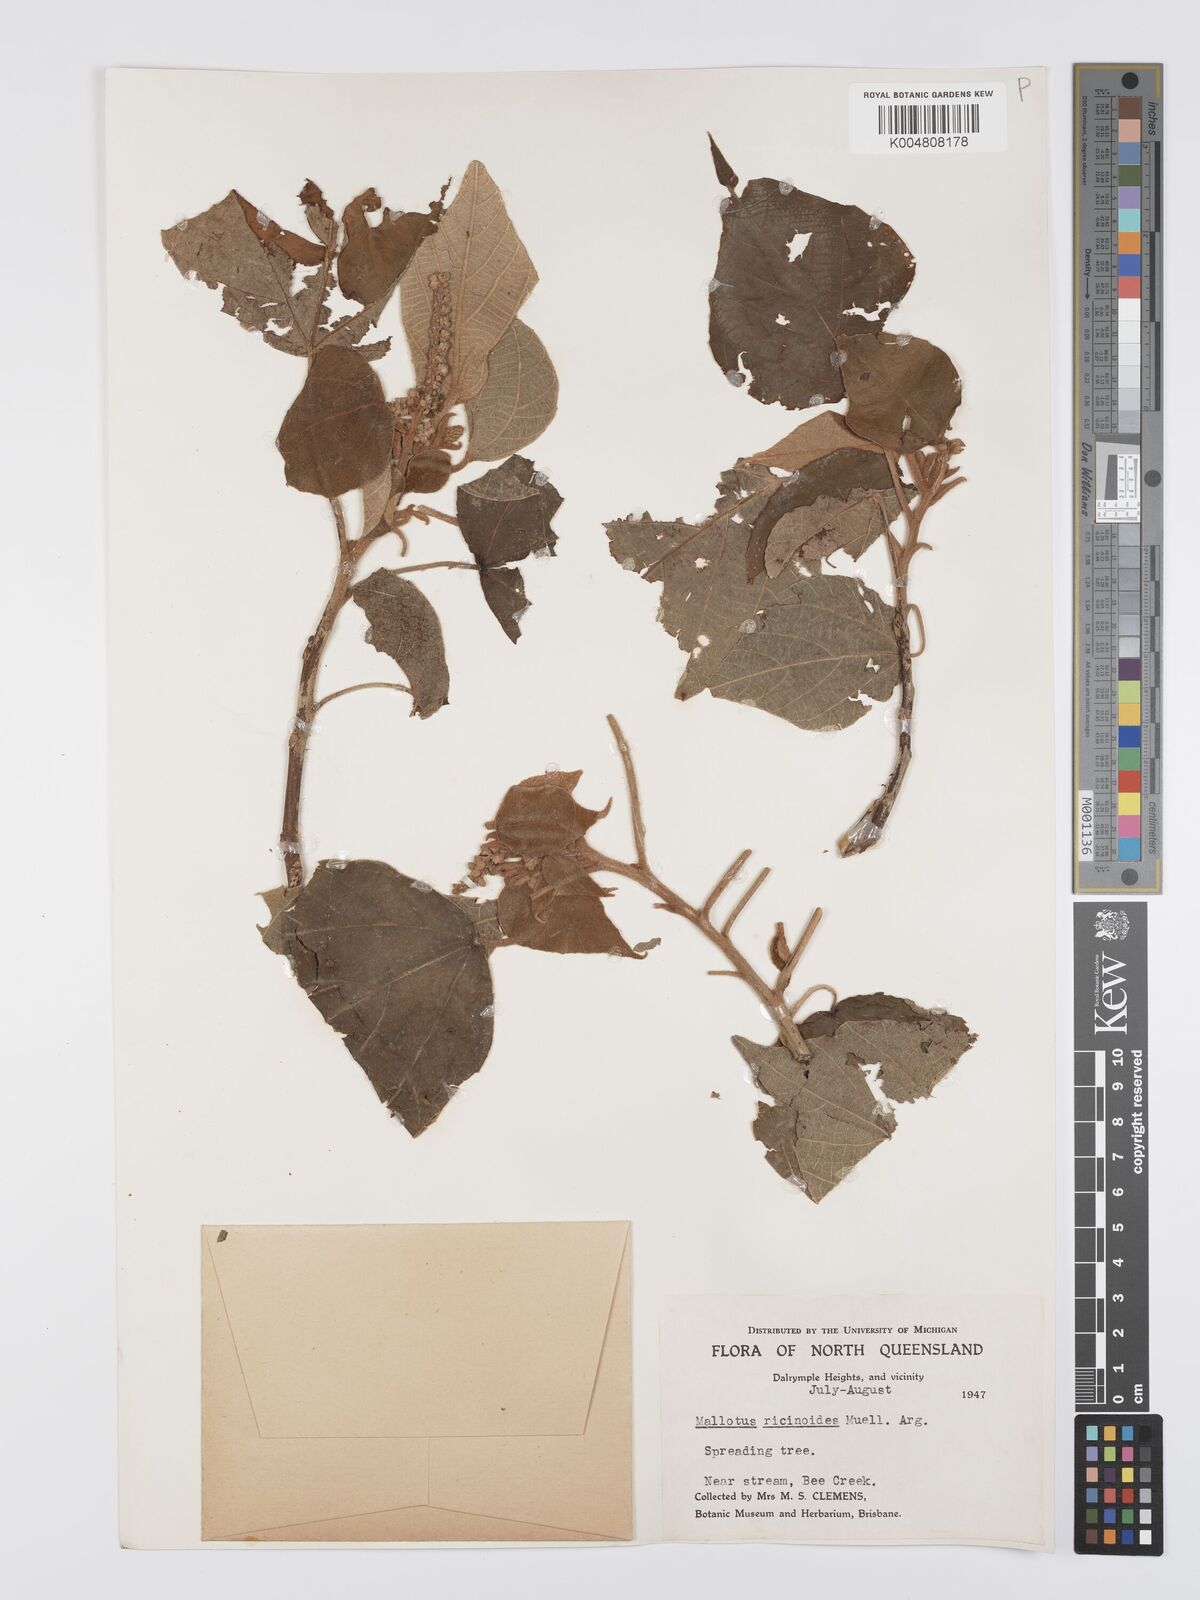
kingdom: Plantae
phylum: Tracheophyta
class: Magnoliopsida
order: Malpighiales
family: Euphorbiaceae
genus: Mallotus
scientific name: Mallotus mollissimus
